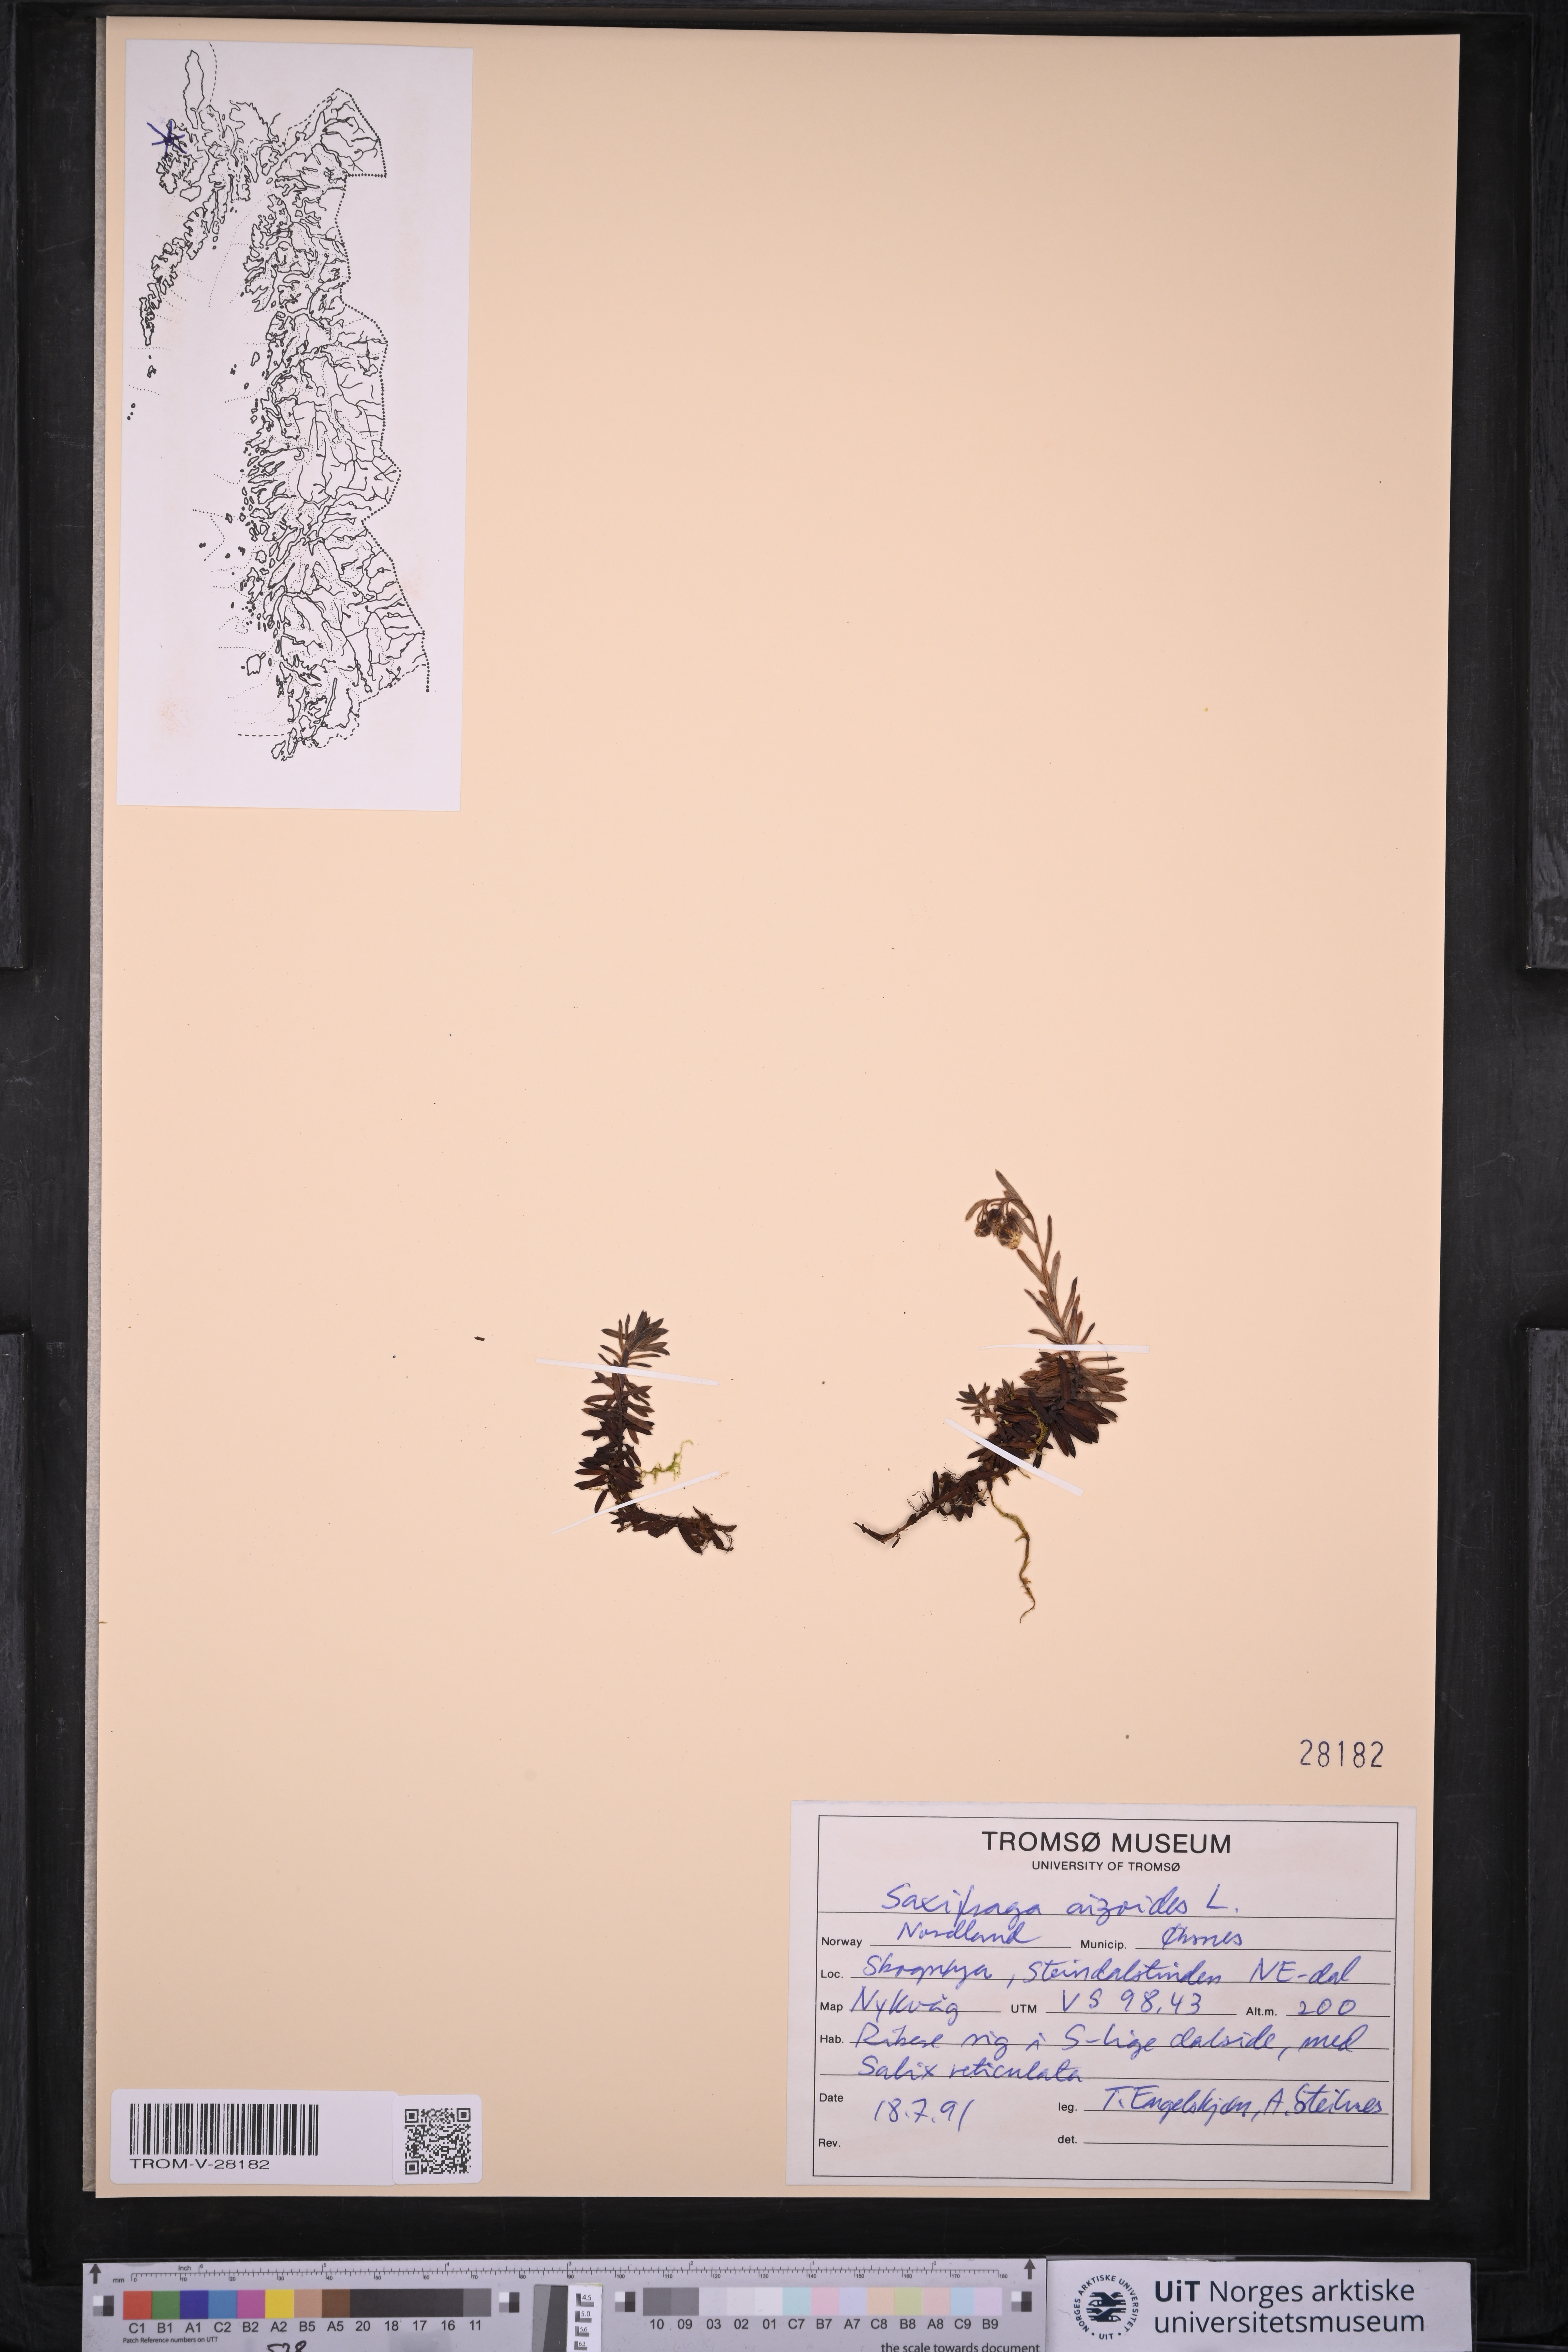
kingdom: Plantae
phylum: Tracheophyta
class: Magnoliopsida
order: Saxifragales
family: Saxifragaceae
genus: Saxifraga
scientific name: Saxifraga aizoides
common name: Yellow mountain saxifrage
